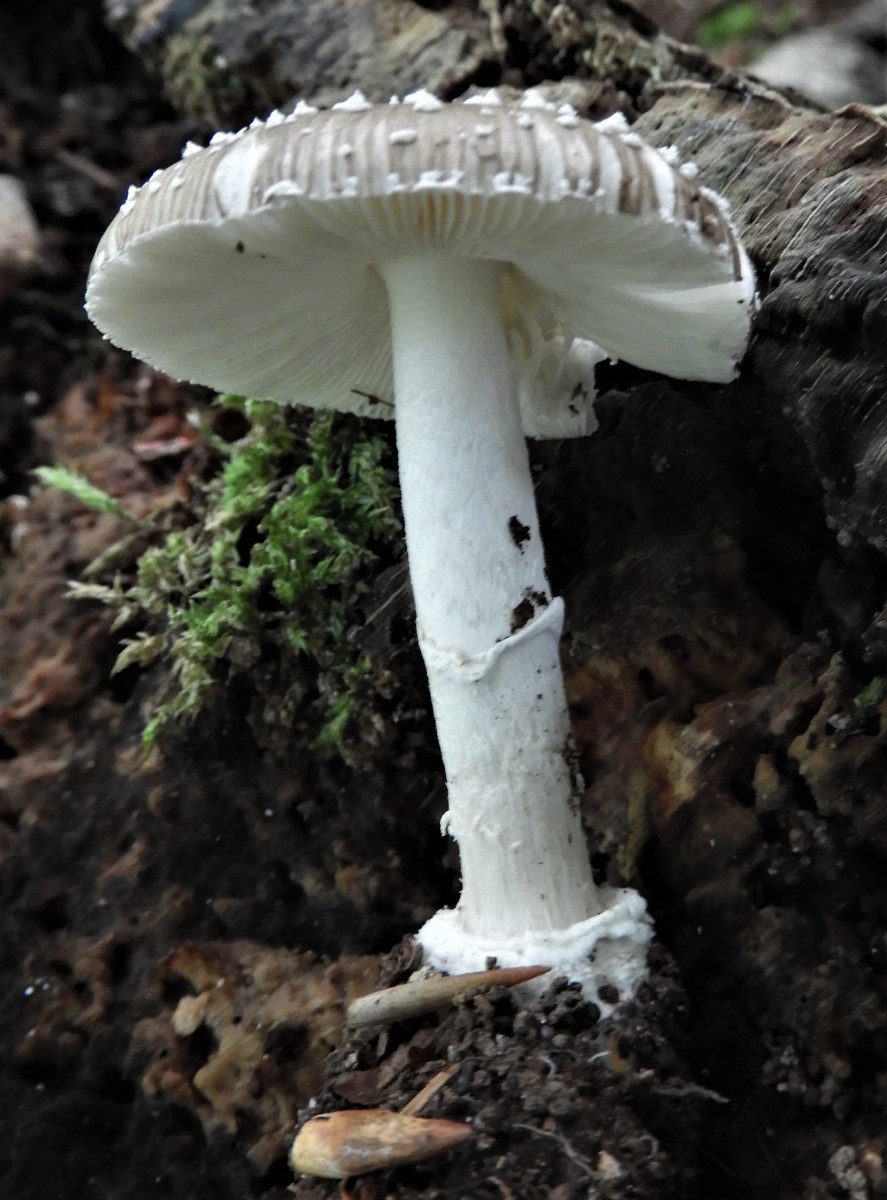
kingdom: Fungi
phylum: Basidiomycota
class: Agaricomycetes
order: Agaricales
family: Amanitaceae
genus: Amanita
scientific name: Amanita pantherina
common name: panter-fluesvamp
